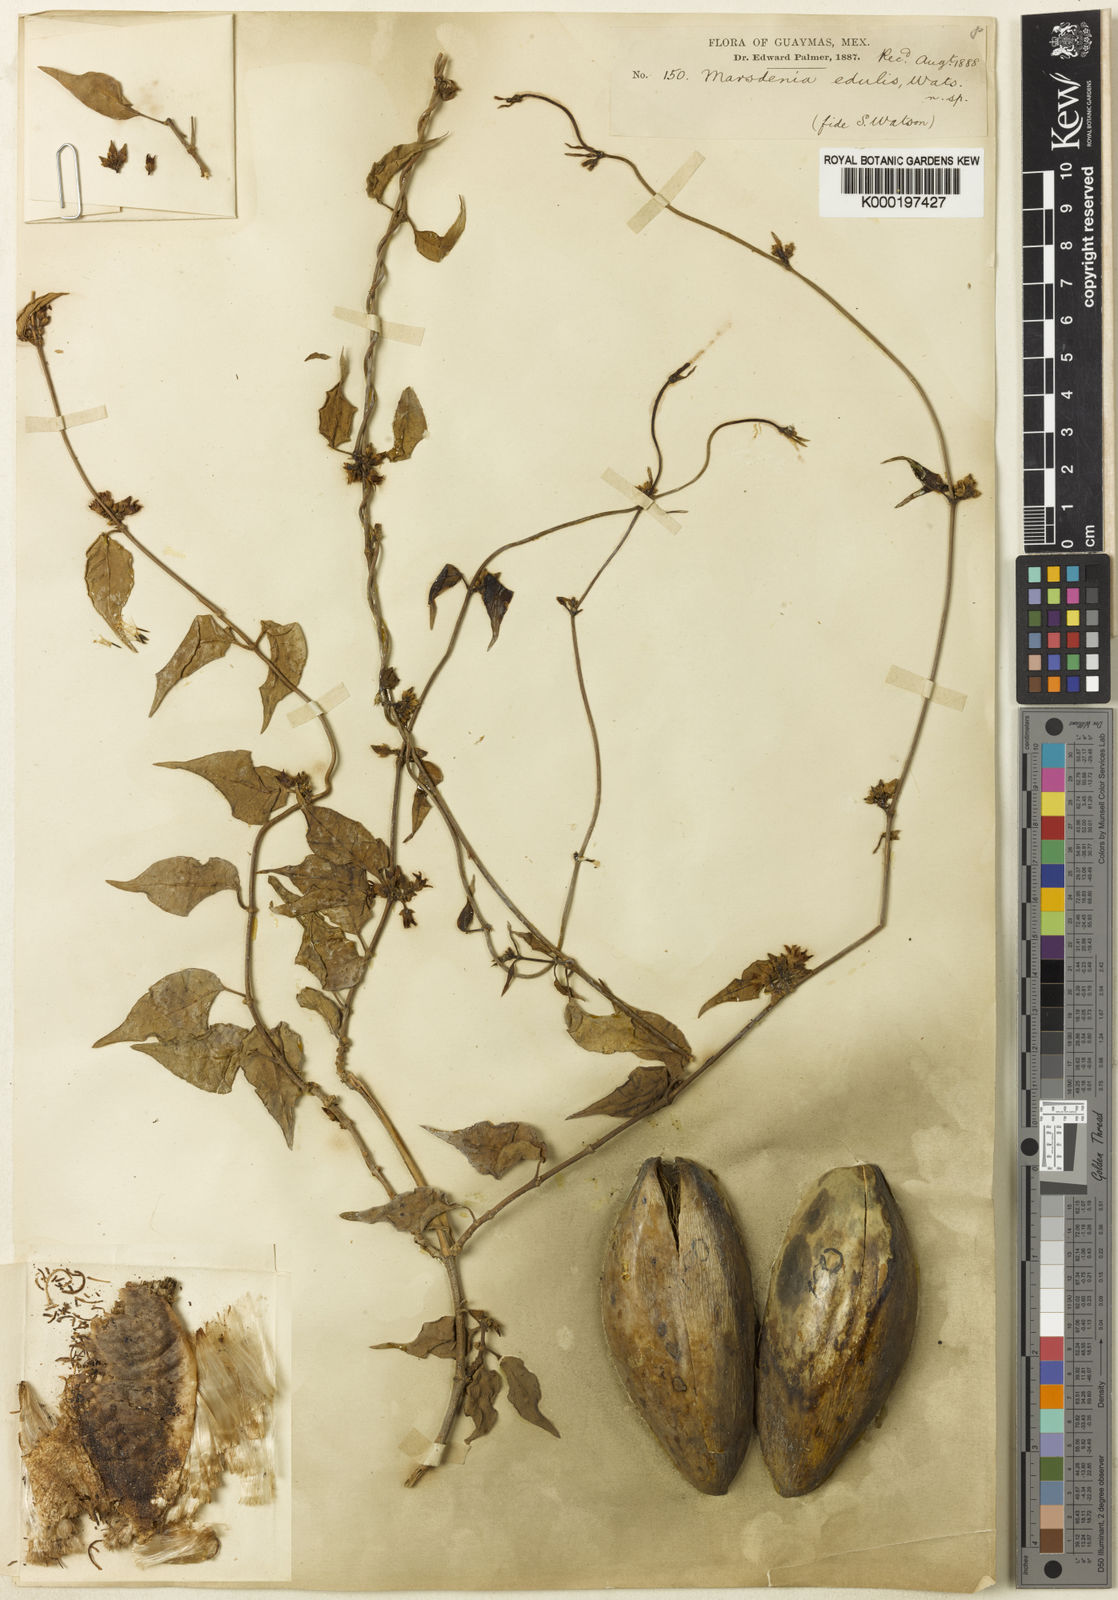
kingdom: Plantae
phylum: Tracheophyta
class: Magnoliopsida
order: Gentianales
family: Apocynaceae
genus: Ruehssia
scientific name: Ruehssia edulis
